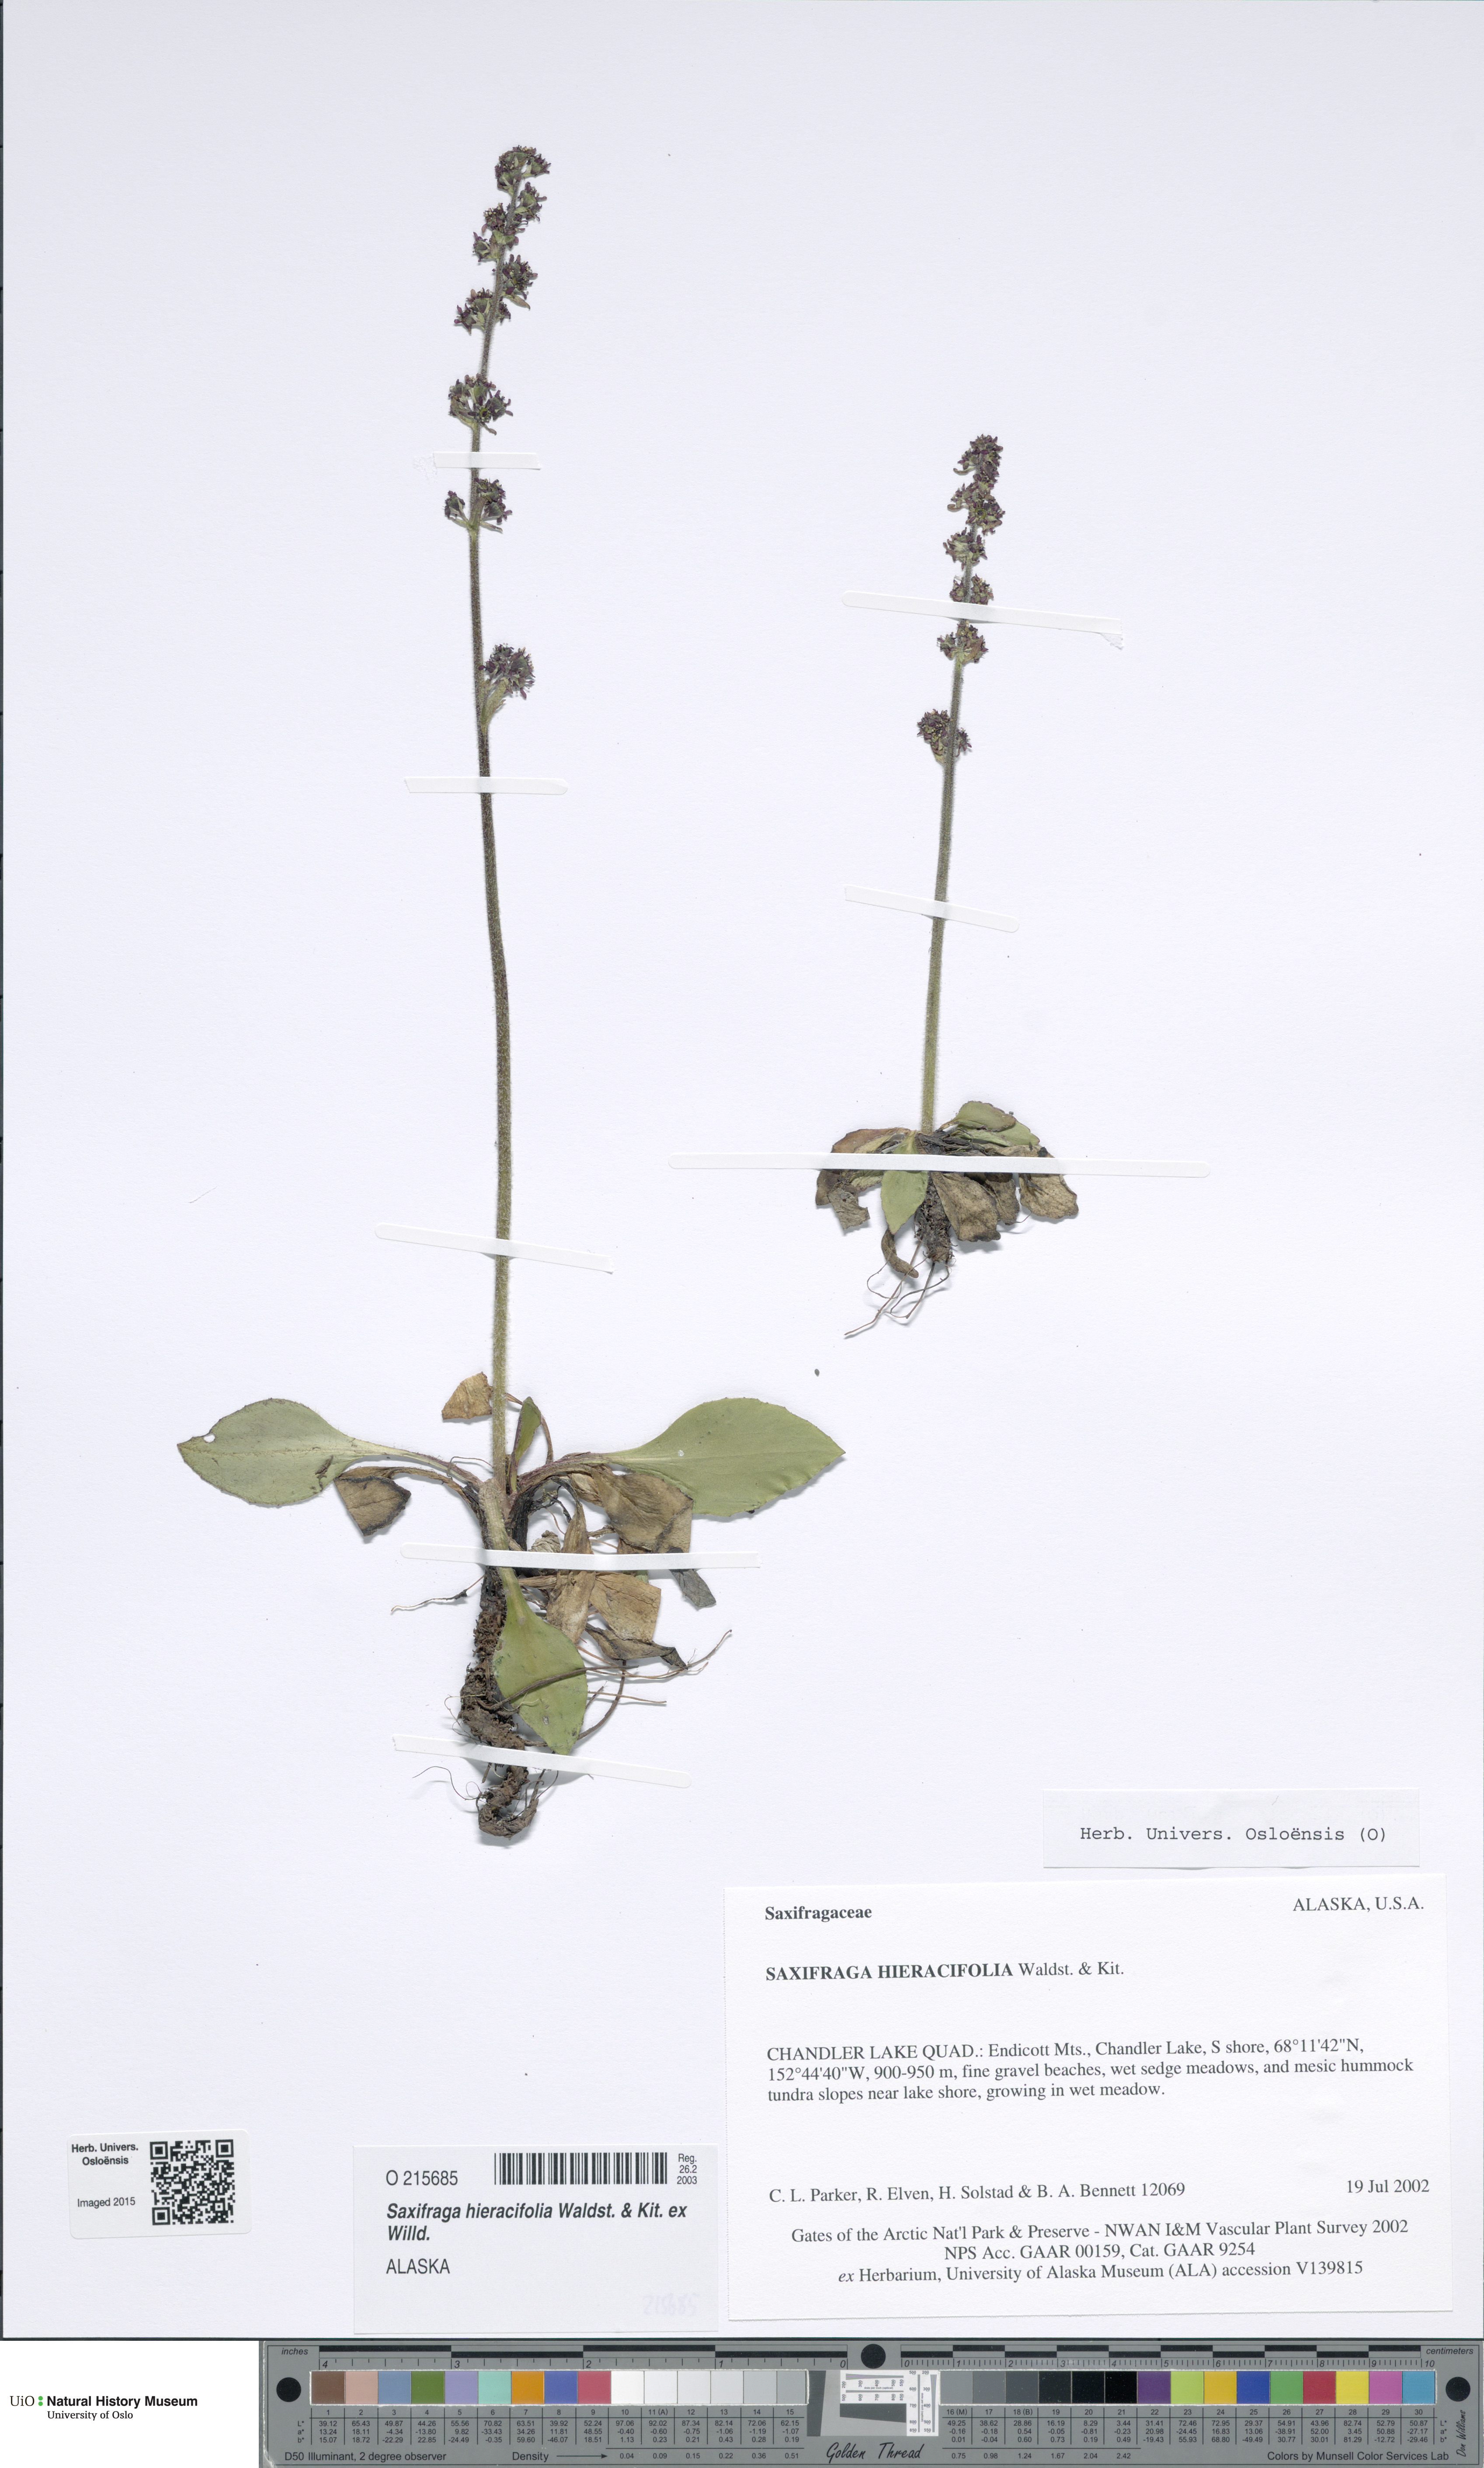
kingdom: Plantae
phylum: Tracheophyta
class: Magnoliopsida
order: Saxifragales
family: Saxifragaceae
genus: Micranthes
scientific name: Micranthes hieraciifolia
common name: Hawkweed-leaved saxifrage
